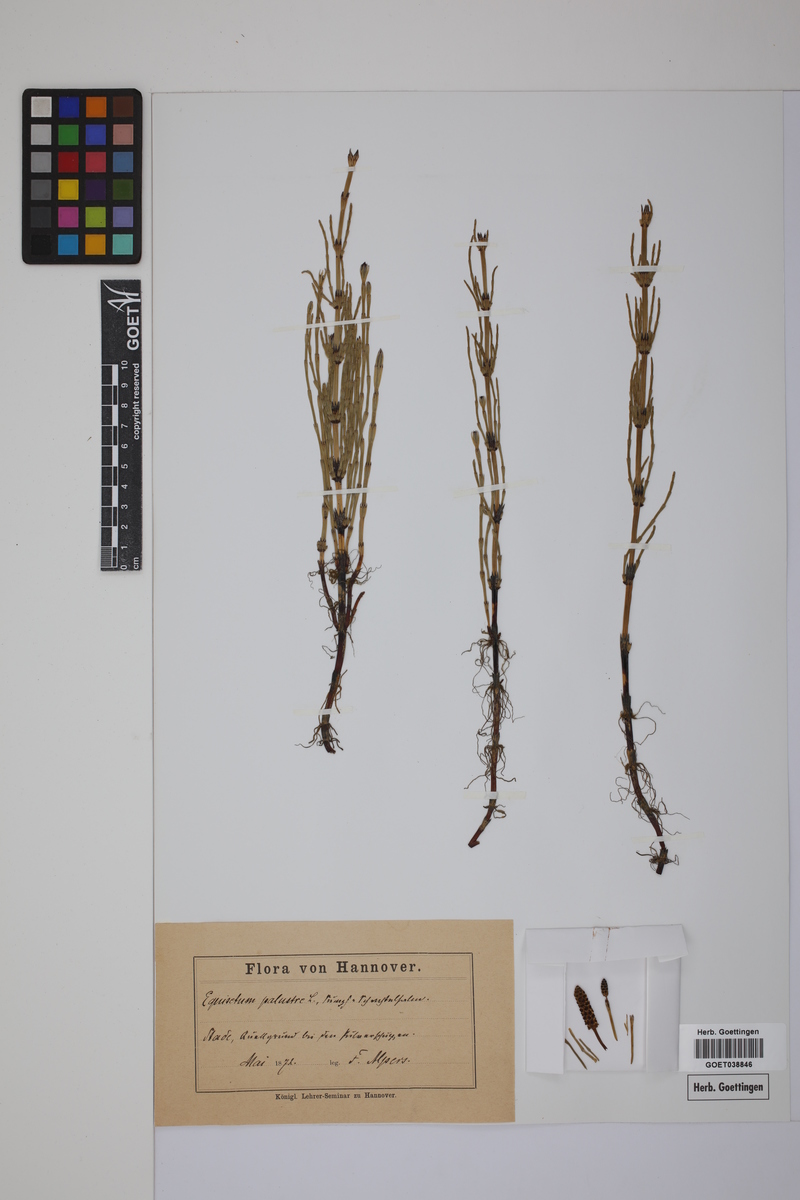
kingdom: Plantae
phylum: Tracheophyta
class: Polypodiopsida
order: Equisetales
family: Equisetaceae
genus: Equisetum
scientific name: Equisetum palustre
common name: Marsh horsetail
